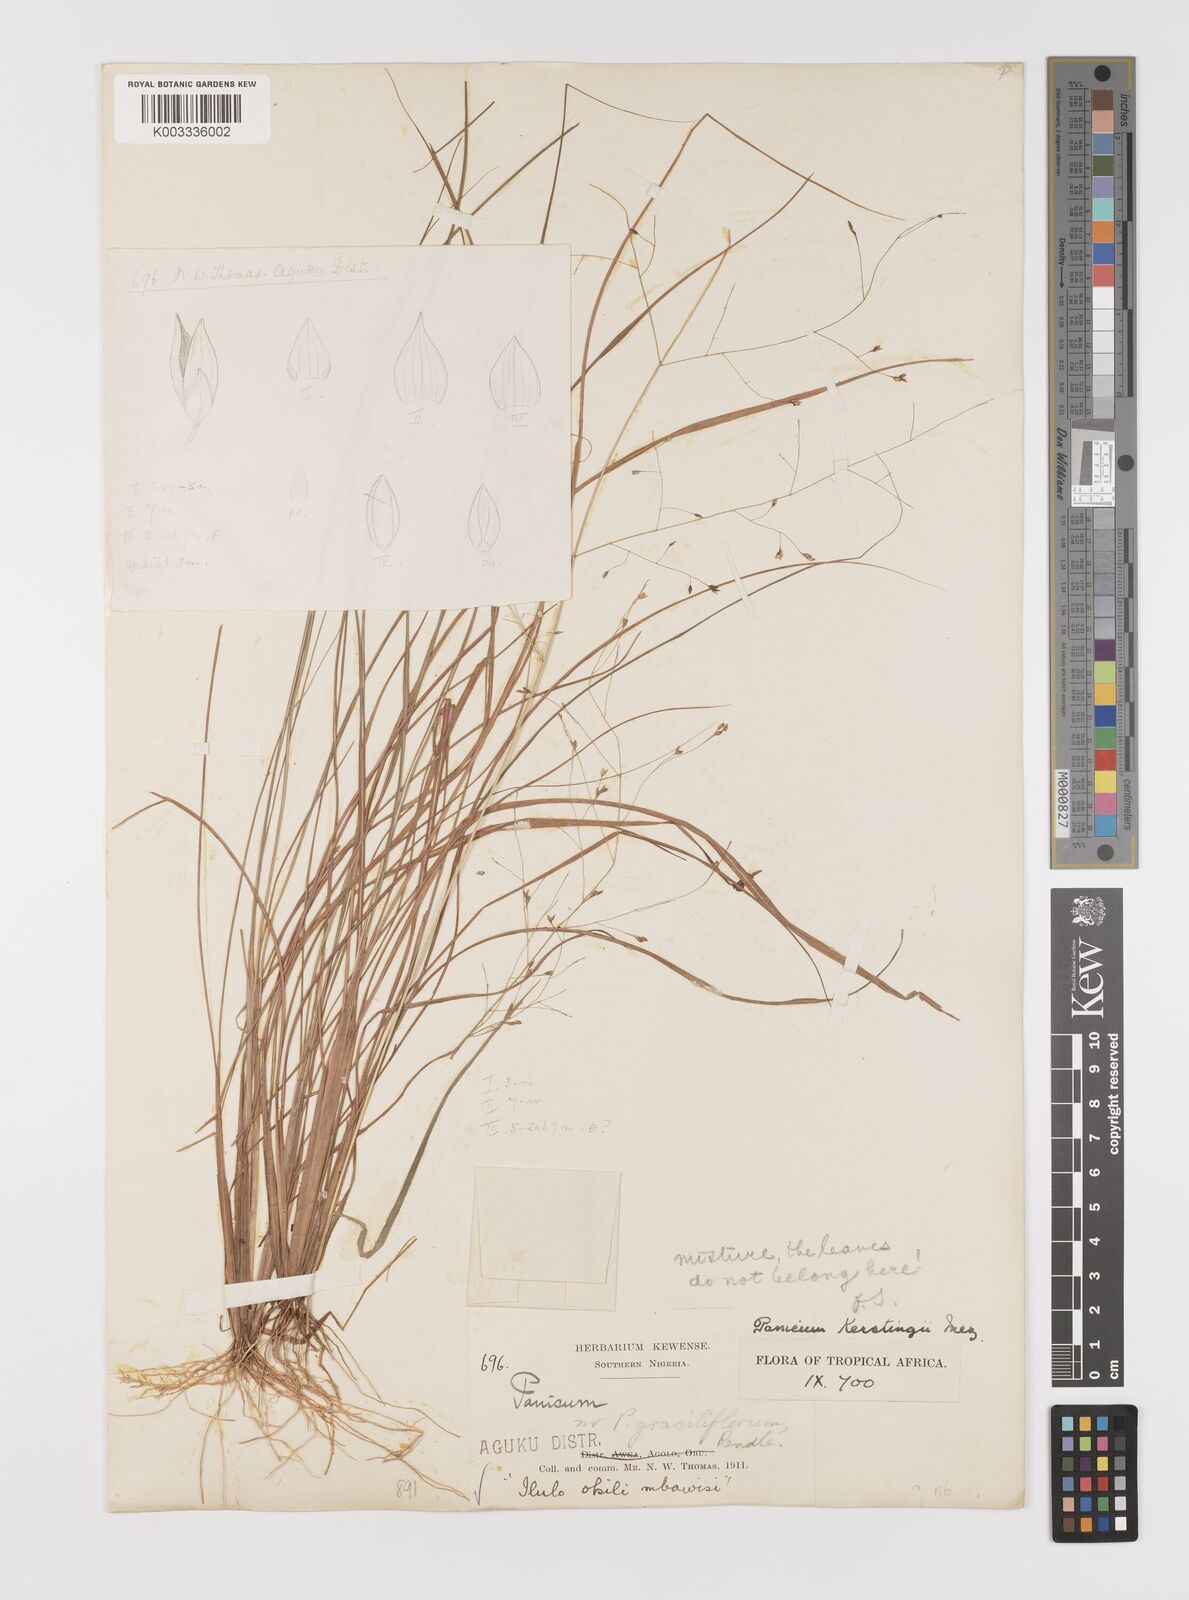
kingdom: Plantae
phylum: Tracheophyta
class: Liliopsida
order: Poales
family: Poaceae
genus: Panicum
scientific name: Panicum pansum
